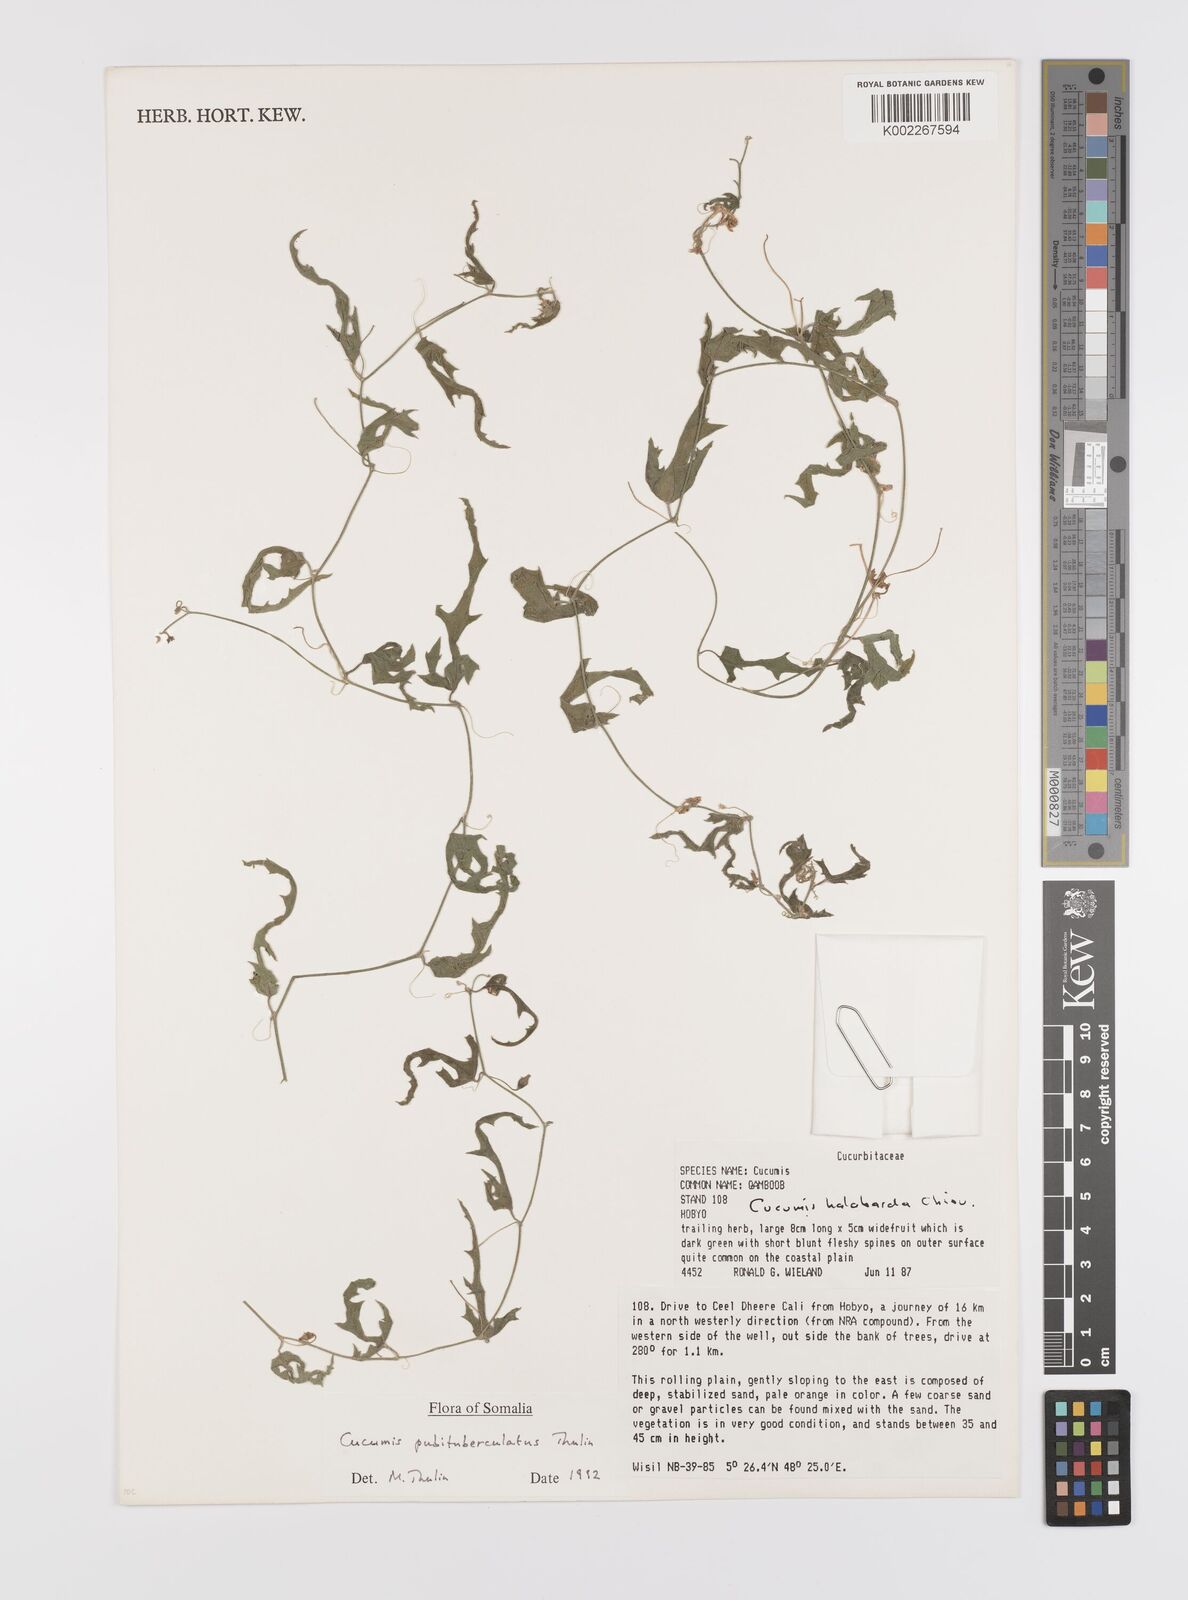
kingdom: Plantae
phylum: Tracheophyta
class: Magnoliopsida
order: Cucurbitales
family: Cucurbitaceae
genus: Cucumis
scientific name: Cucumis pubituberculatus
